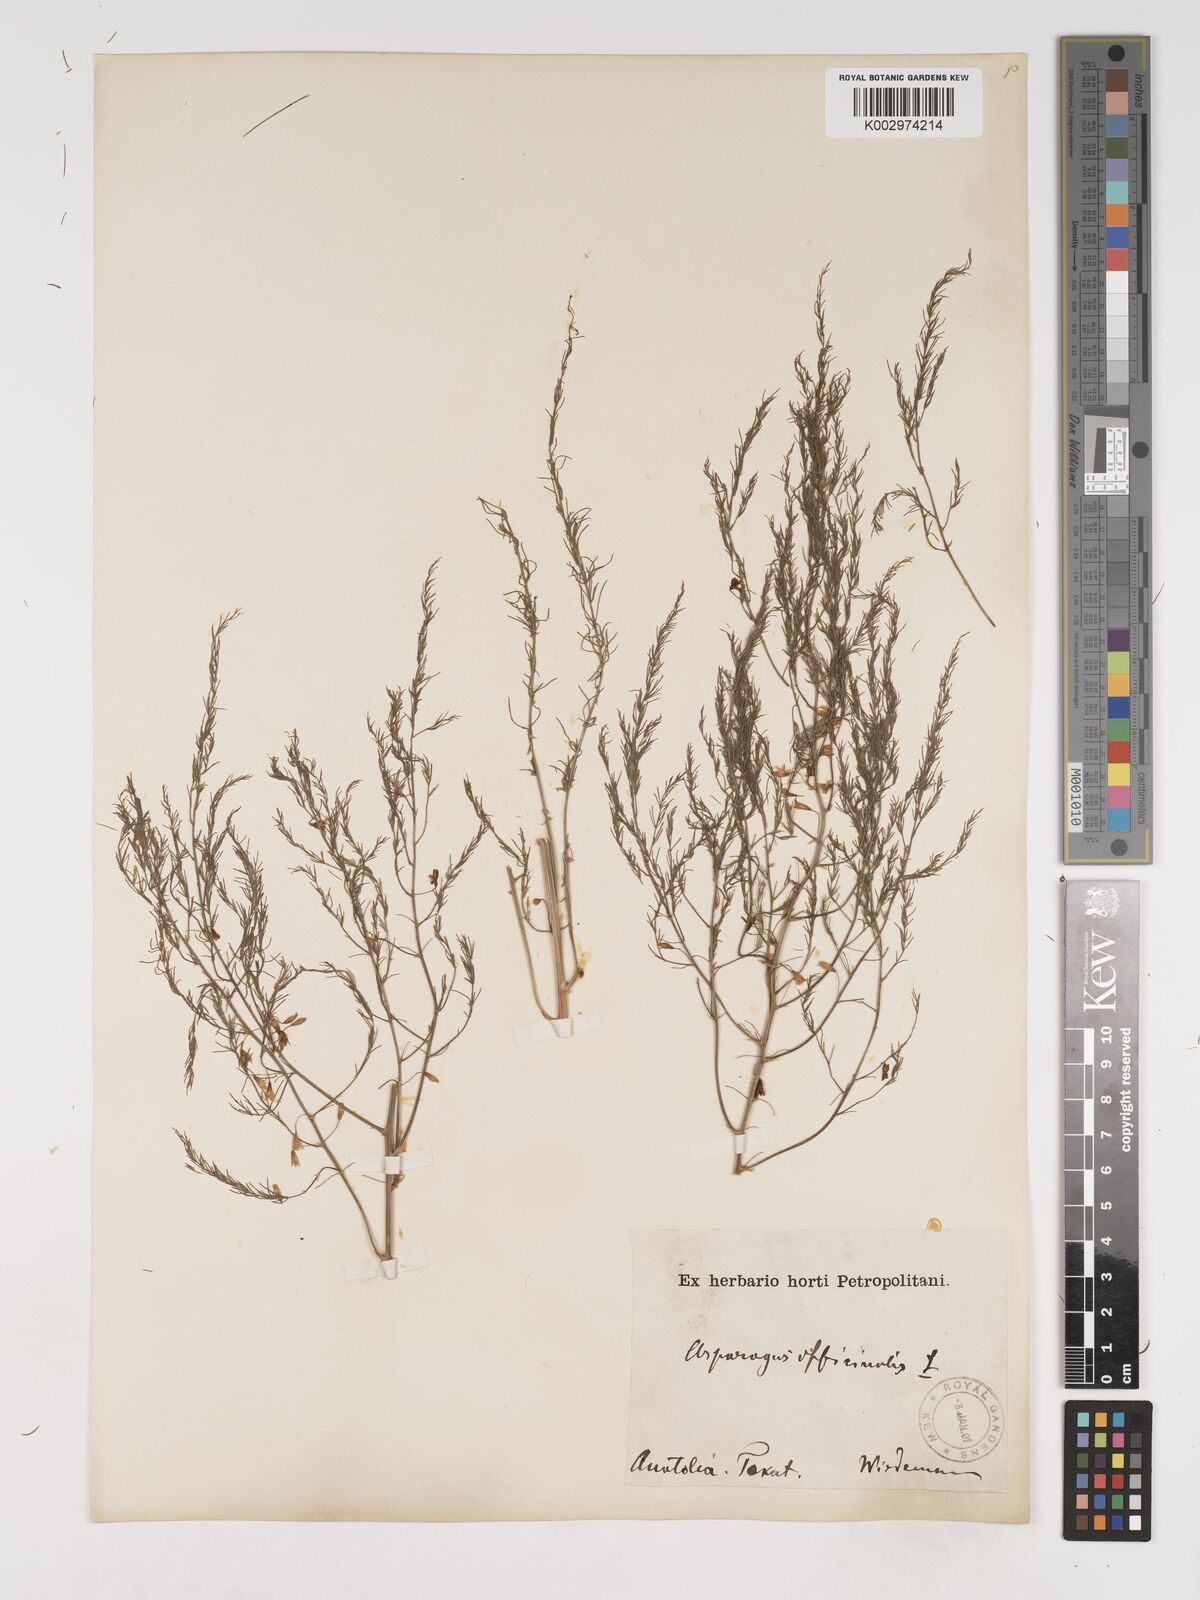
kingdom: Plantae
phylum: Tracheophyta
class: Liliopsida
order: Asparagales
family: Asparagaceae
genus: Asparagus
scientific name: Asparagus officinalis
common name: Garden asparagus
